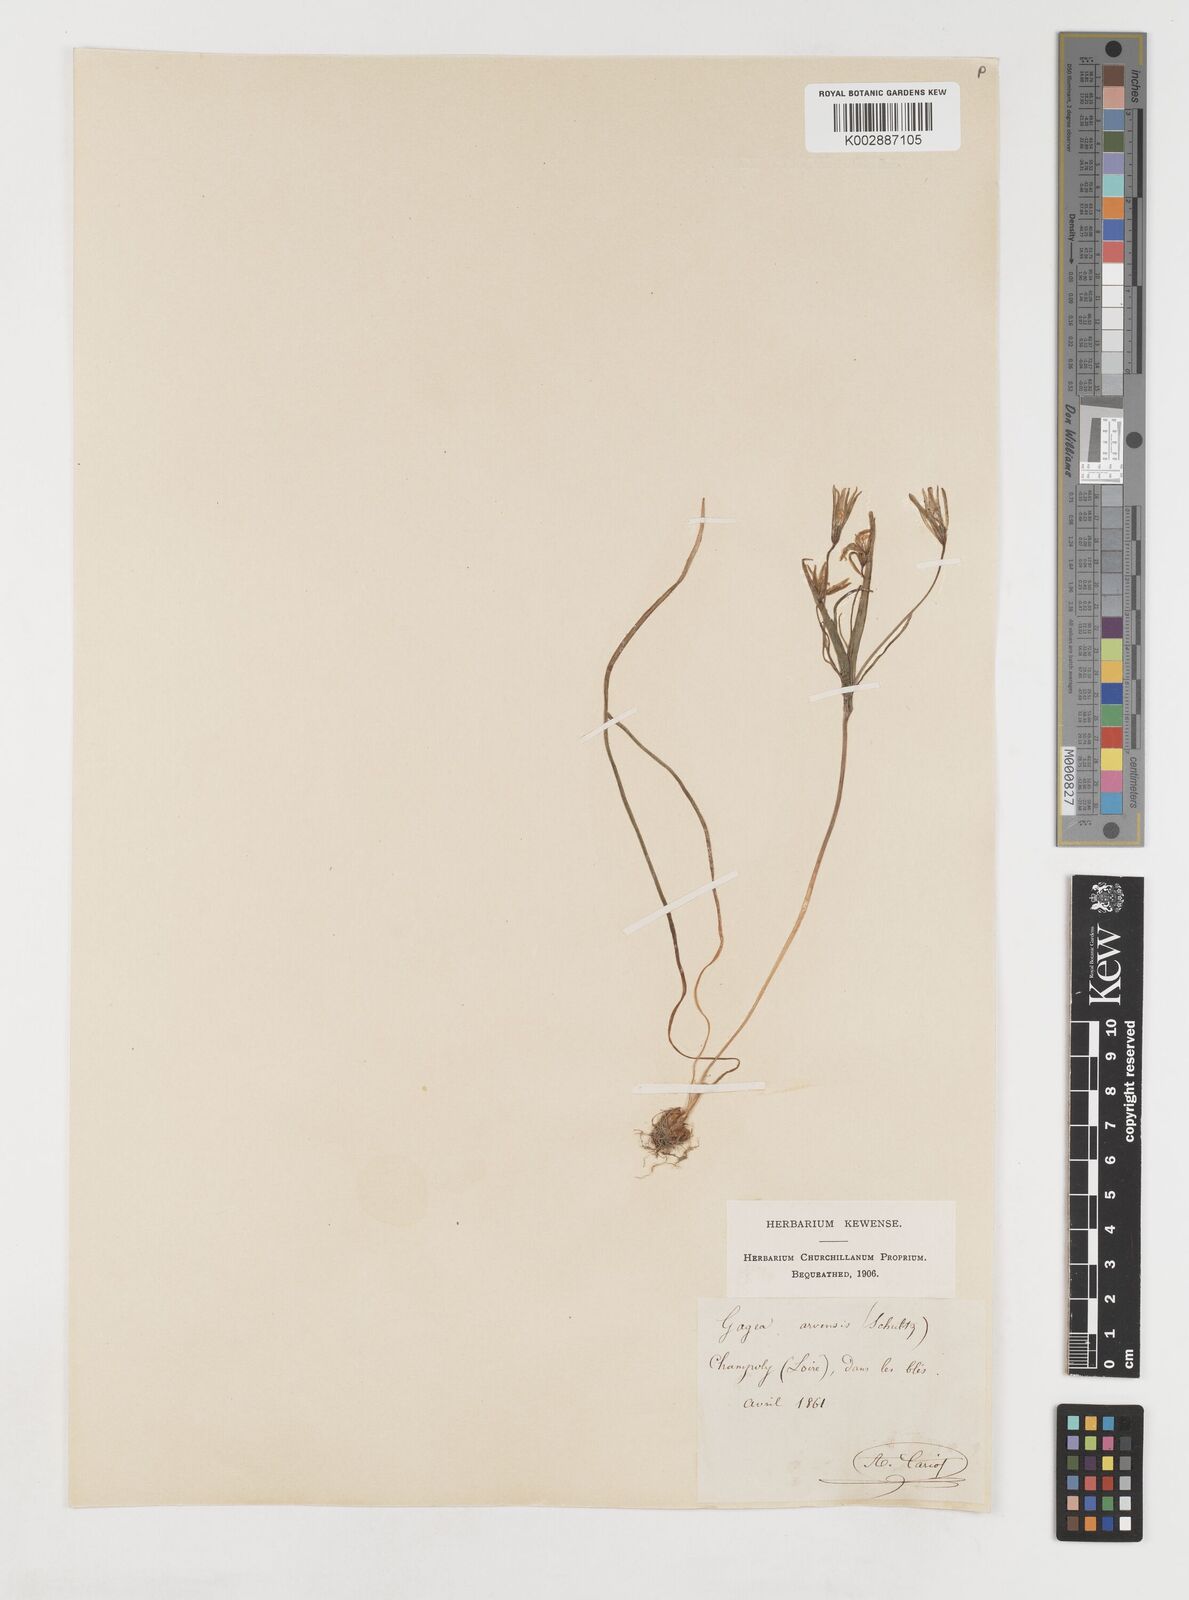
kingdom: Plantae
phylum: Tracheophyta
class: Liliopsida
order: Liliales
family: Liliaceae
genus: Gagea
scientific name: Gagea minima
